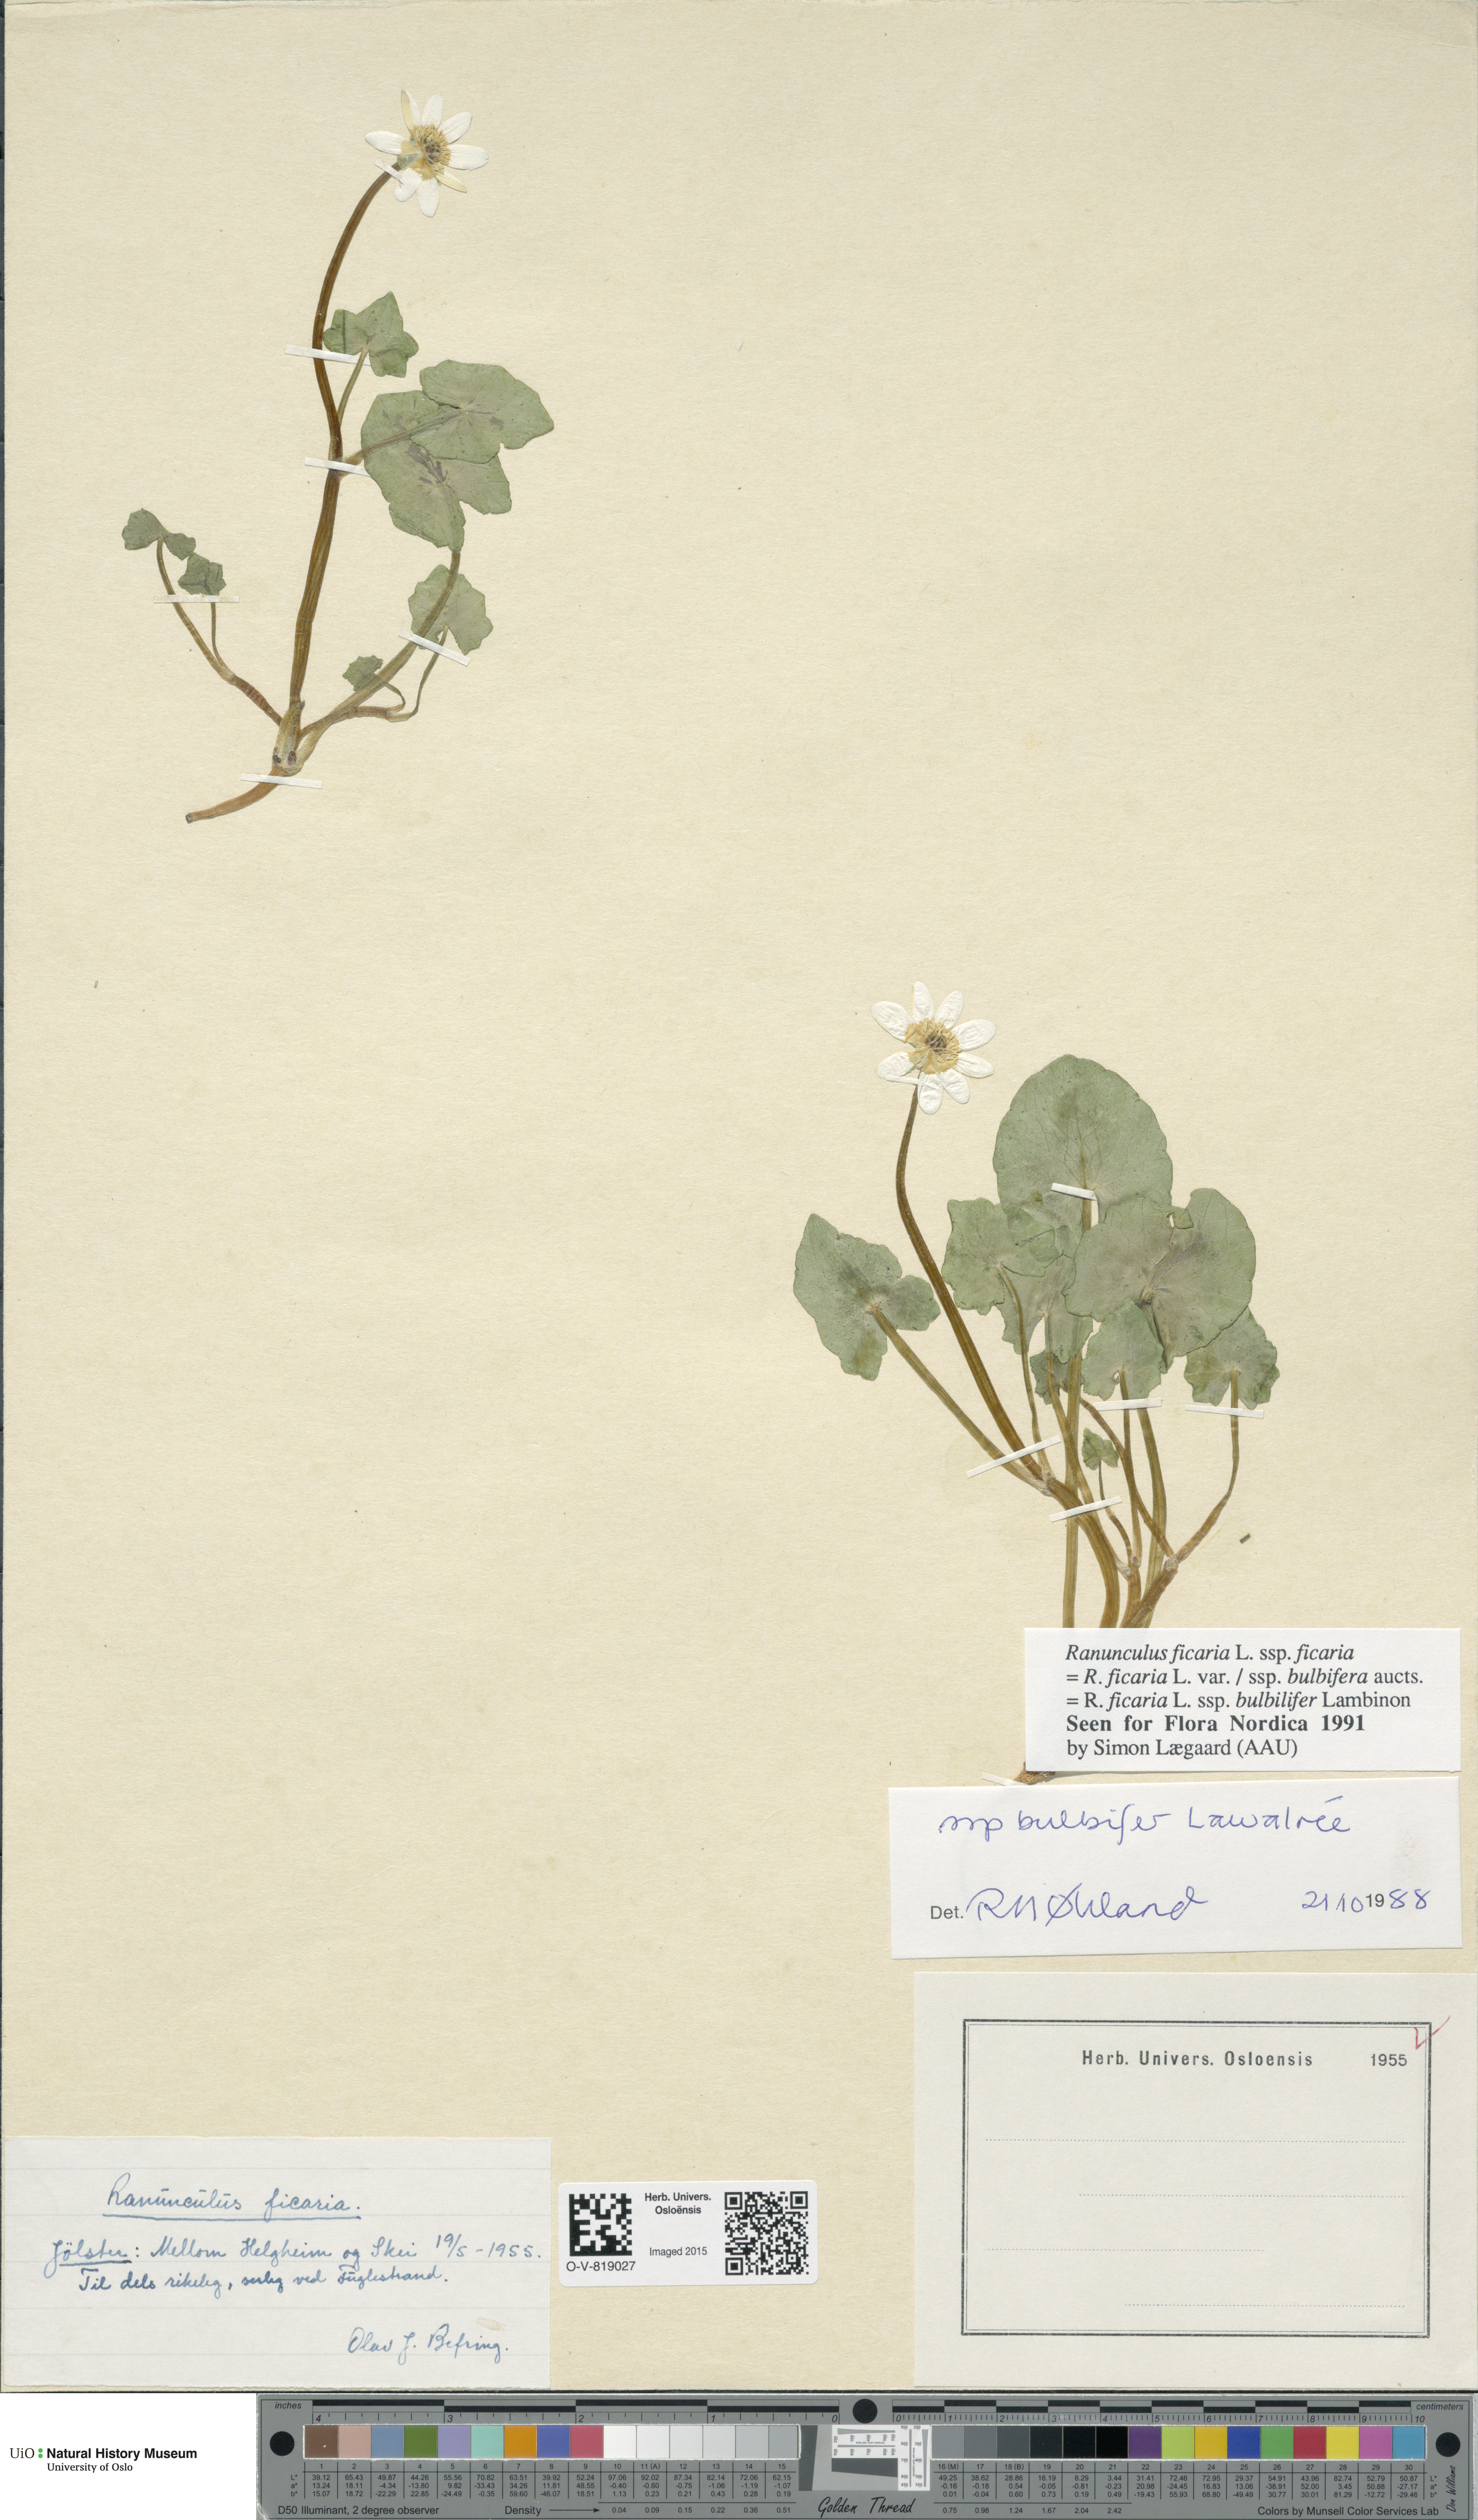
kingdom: Plantae
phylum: Tracheophyta
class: Magnoliopsida
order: Ranunculales
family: Ranunculaceae
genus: Ficaria
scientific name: Ficaria verna
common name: Lesser celandine
